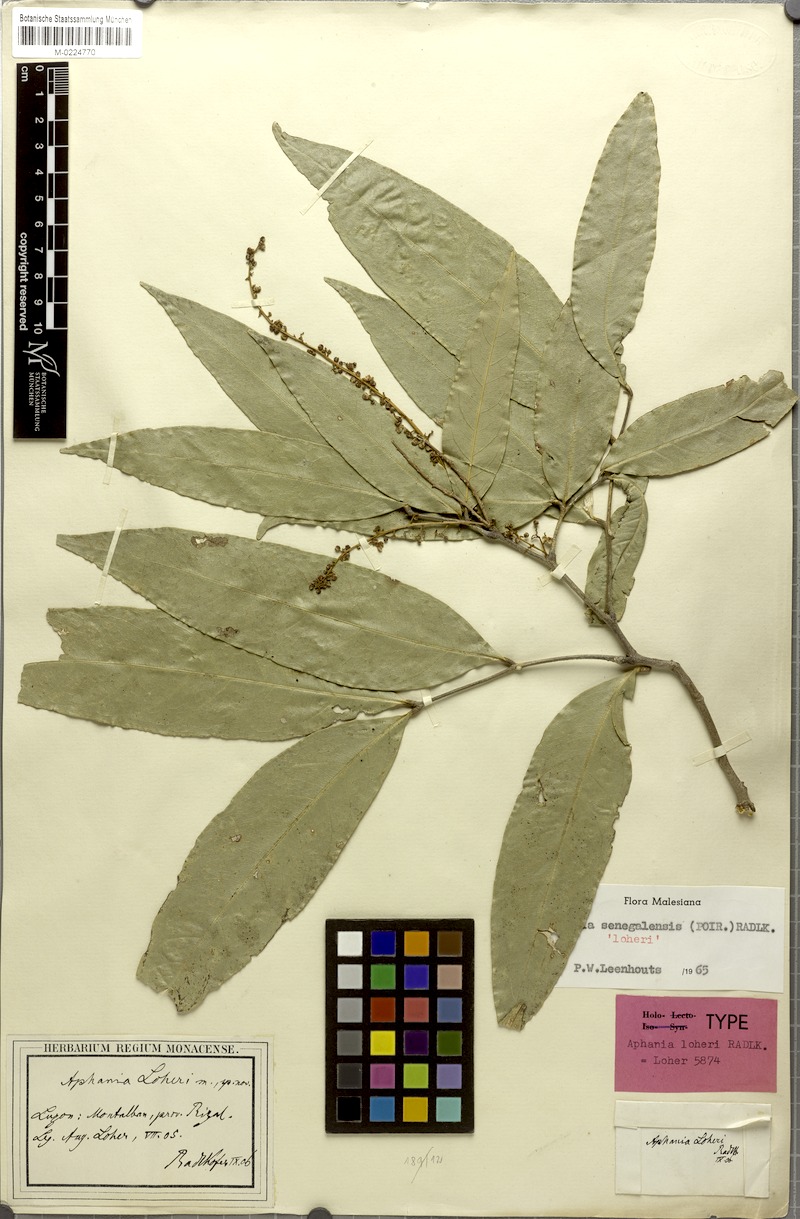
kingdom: Plantae
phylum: Tracheophyta
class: Magnoliopsida
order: Sapindales
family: Sapindaceae
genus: Lepisanthes
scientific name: Lepisanthes senegalensis
